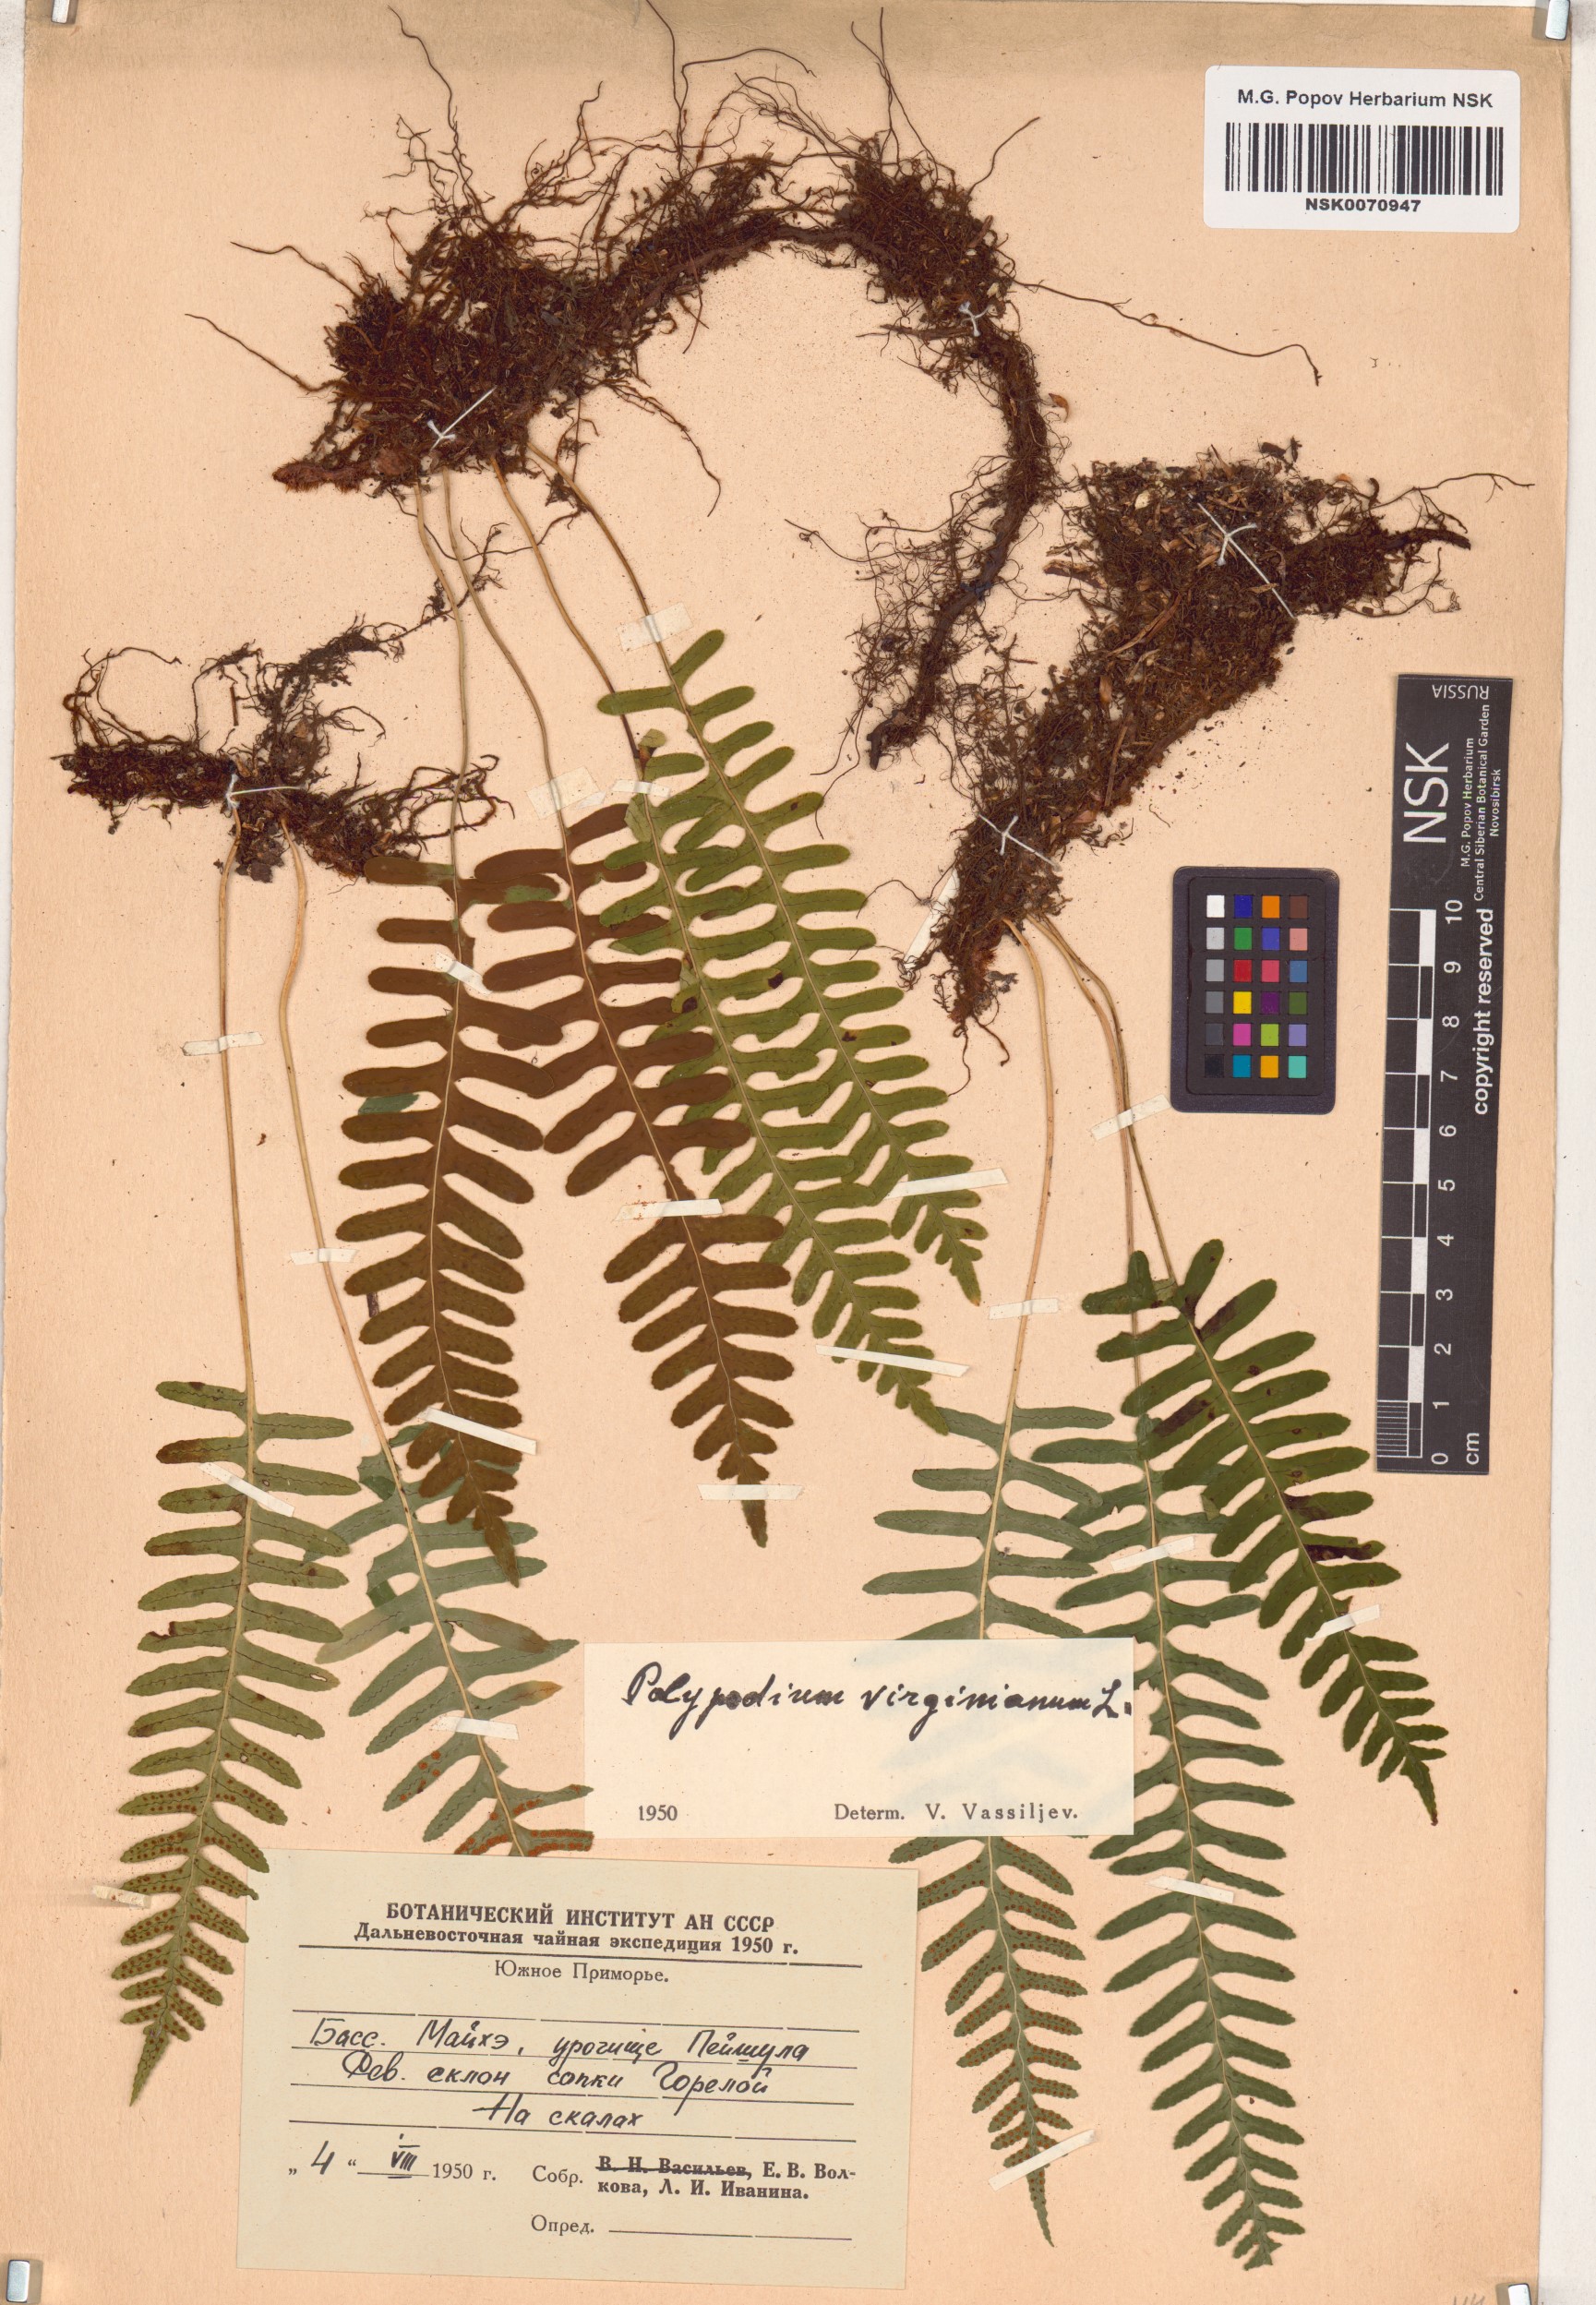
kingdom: Plantae
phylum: Tracheophyta
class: Polypodiopsida
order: Polypodiales
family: Polypodiaceae
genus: Polypodium
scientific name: Polypodium virginianum
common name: American wall fern
